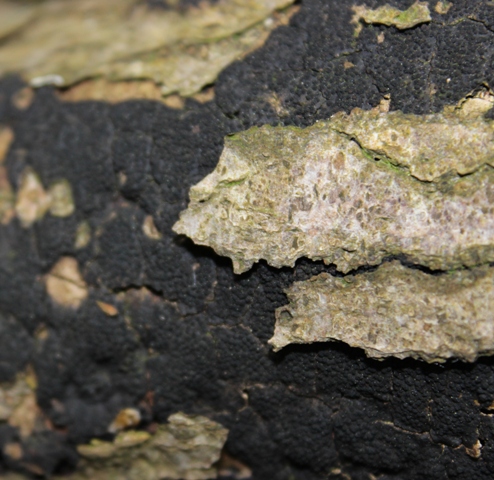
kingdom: Fungi
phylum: Ascomycota
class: Sordariomycetes
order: Xylariales
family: Diatrypaceae
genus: Eutypa
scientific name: Eutypa spinosa
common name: grov kulskorpe
